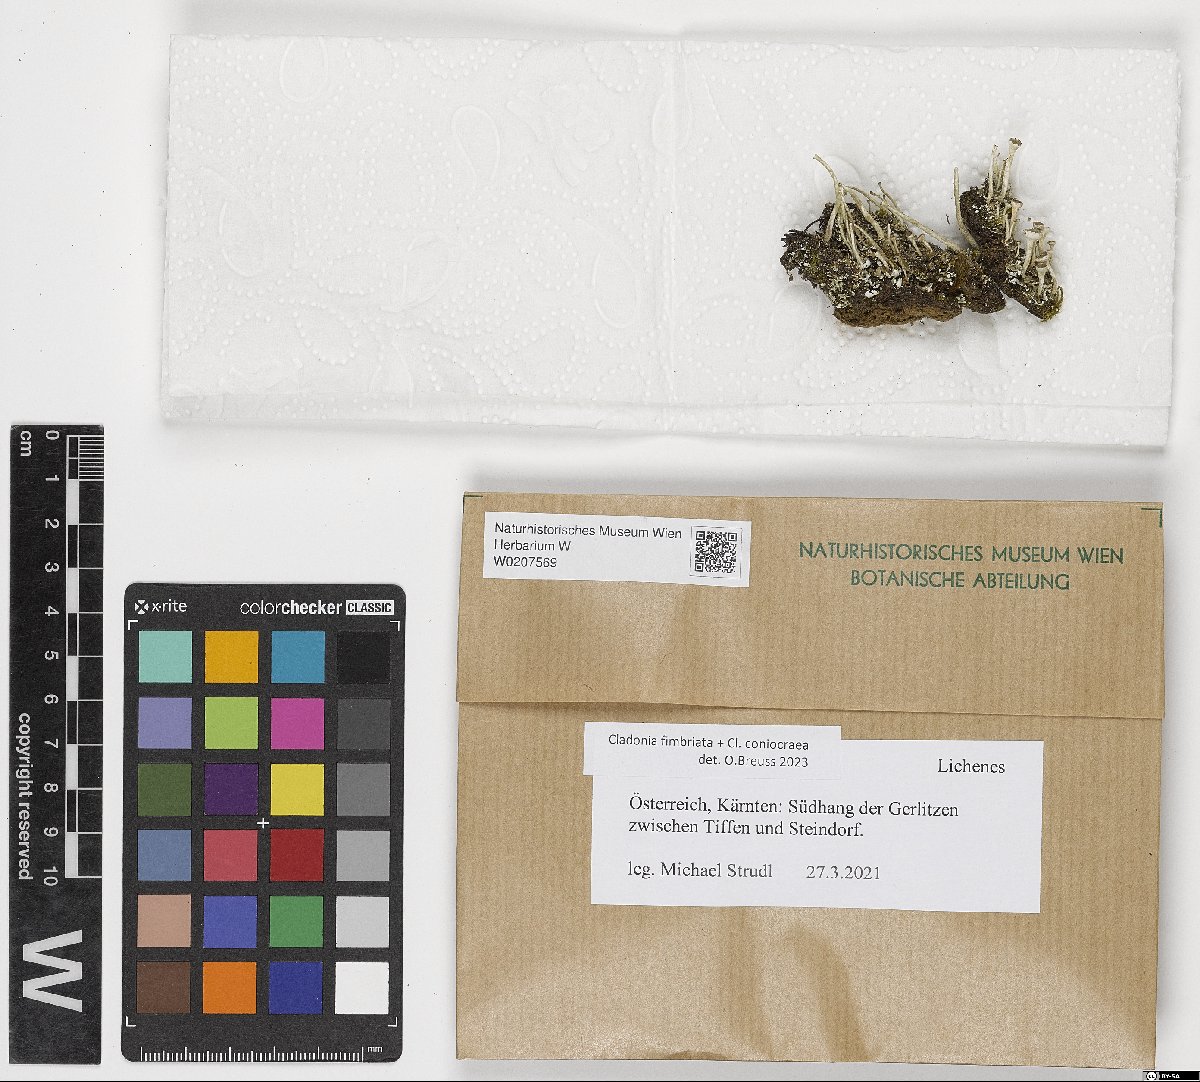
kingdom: Fungi
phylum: Ascomycota
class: Lecanoromycetes
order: Lecanorales
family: Cladoniaceae
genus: Cladonia
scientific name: Cladonia fimbriata
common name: Powdered trumpet lichen
